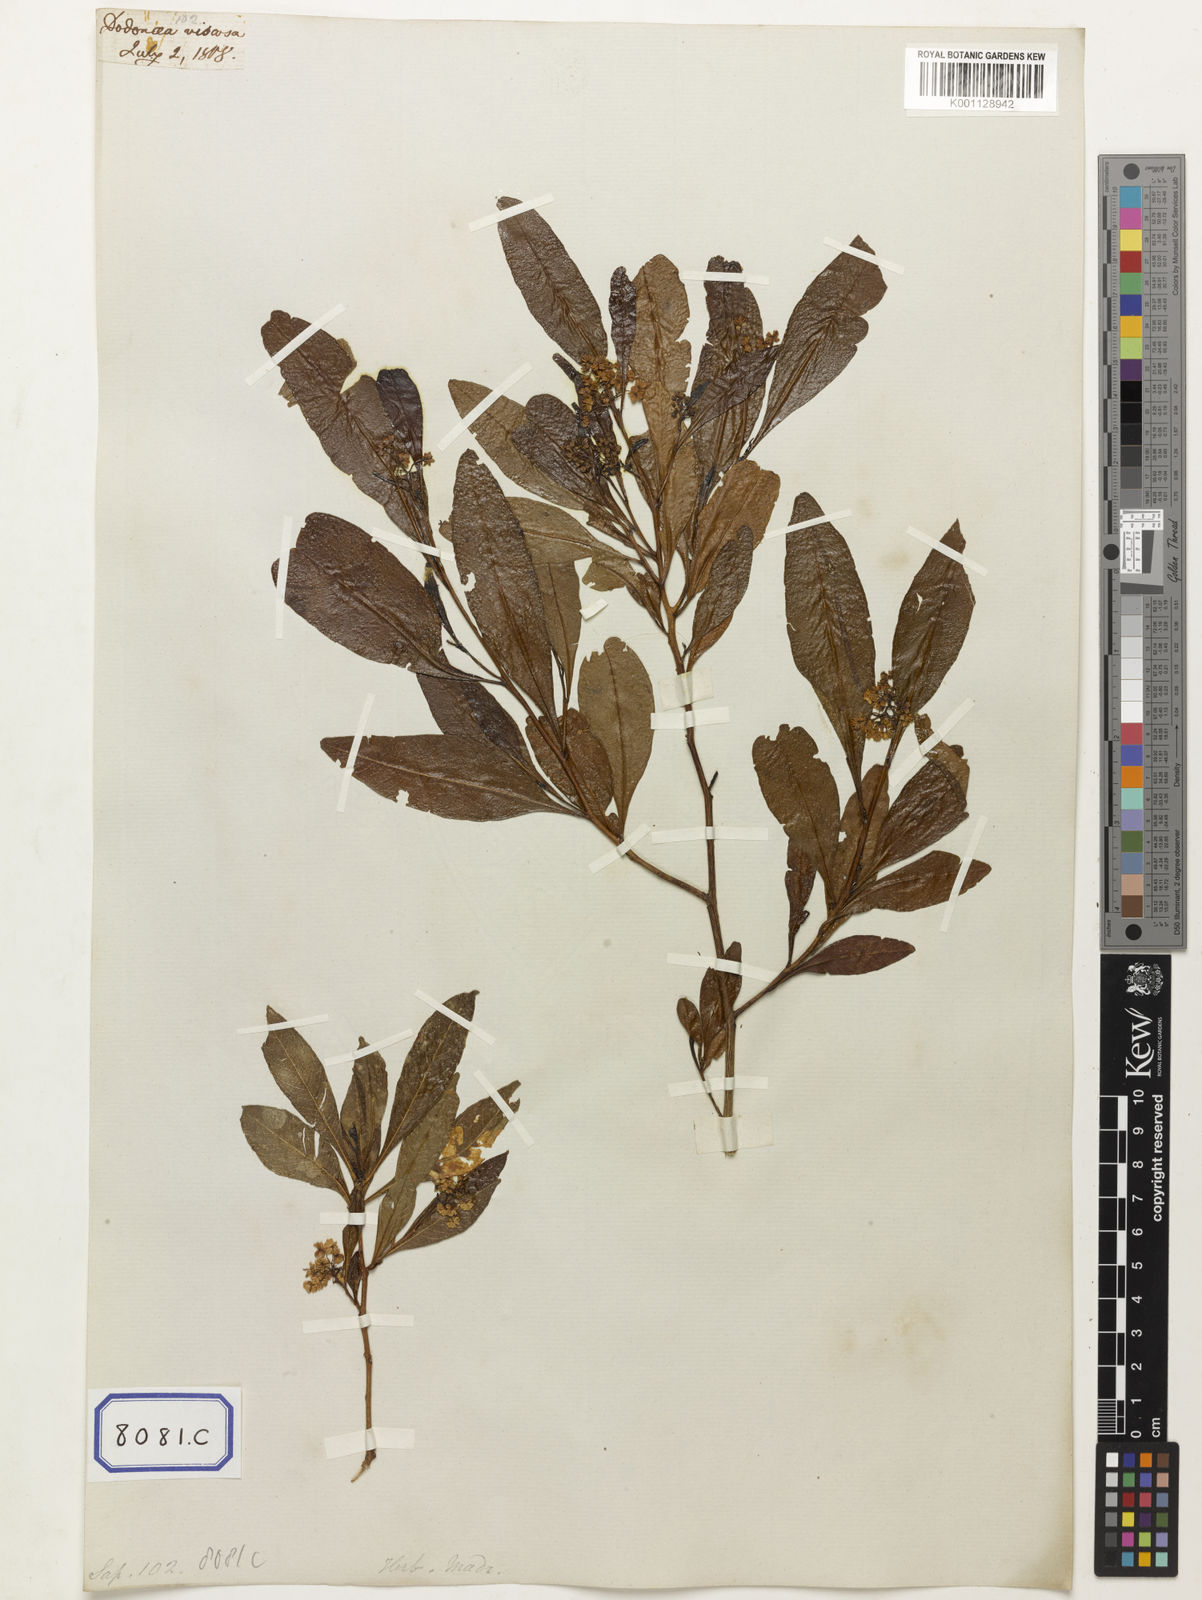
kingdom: Plantae
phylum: Tracheophyta
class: Magnoliopsida
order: Sapindales
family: Sapindaceae
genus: Dodonaea
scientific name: Dodonaea
